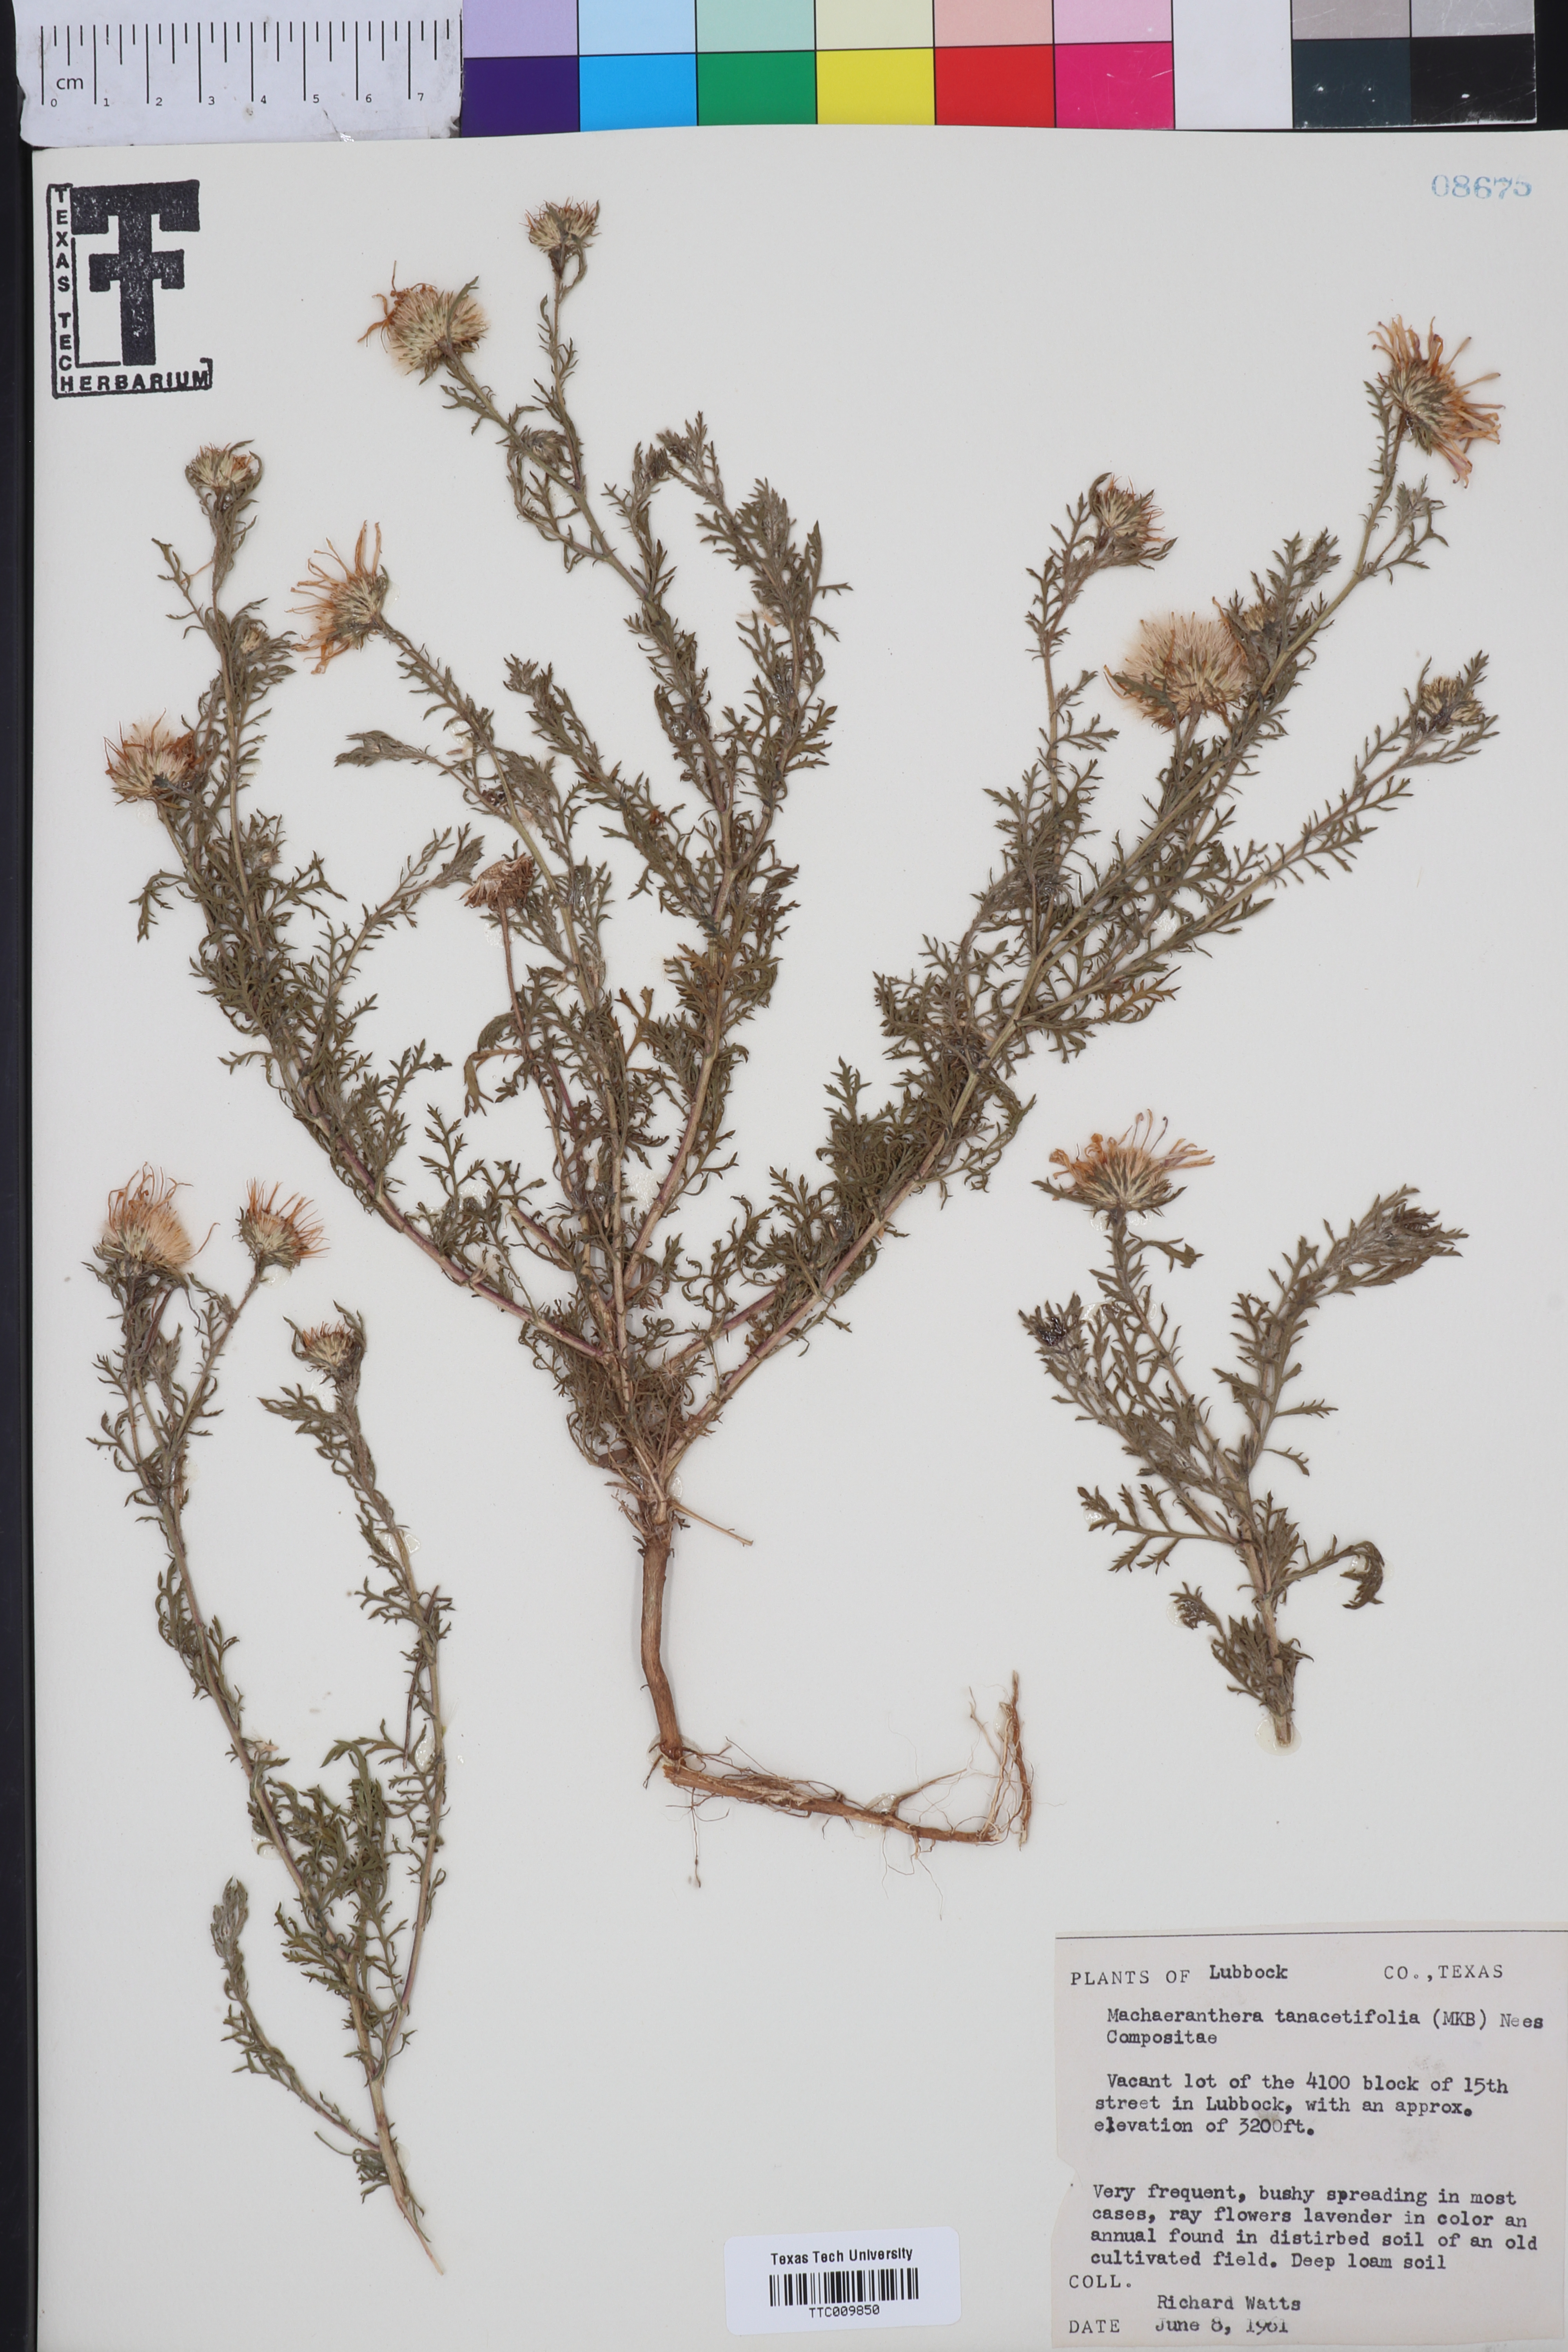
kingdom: Plantae
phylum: Tracheophyta
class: Magnoliopsida
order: Asterales
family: Asteraceae
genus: Machaeranthera
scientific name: Machaeranthera tanacetifolia
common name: Tansy-aster
